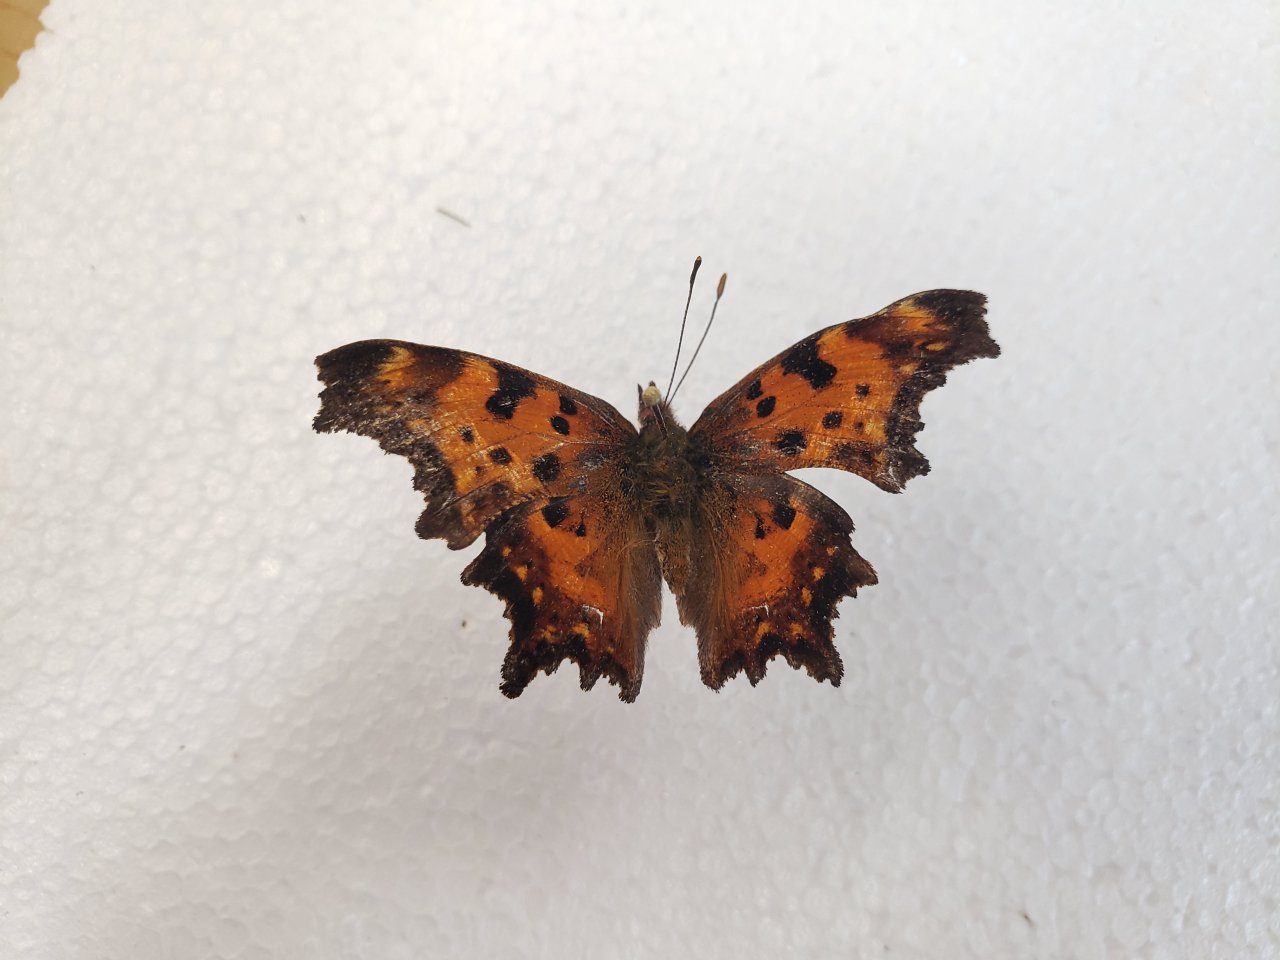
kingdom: Animalia
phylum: Arthropoda
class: Insecta
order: Lepidoptera
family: Nymphalidae
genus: Polygonia
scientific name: Polygonia gracilis
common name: Hoary Comma
